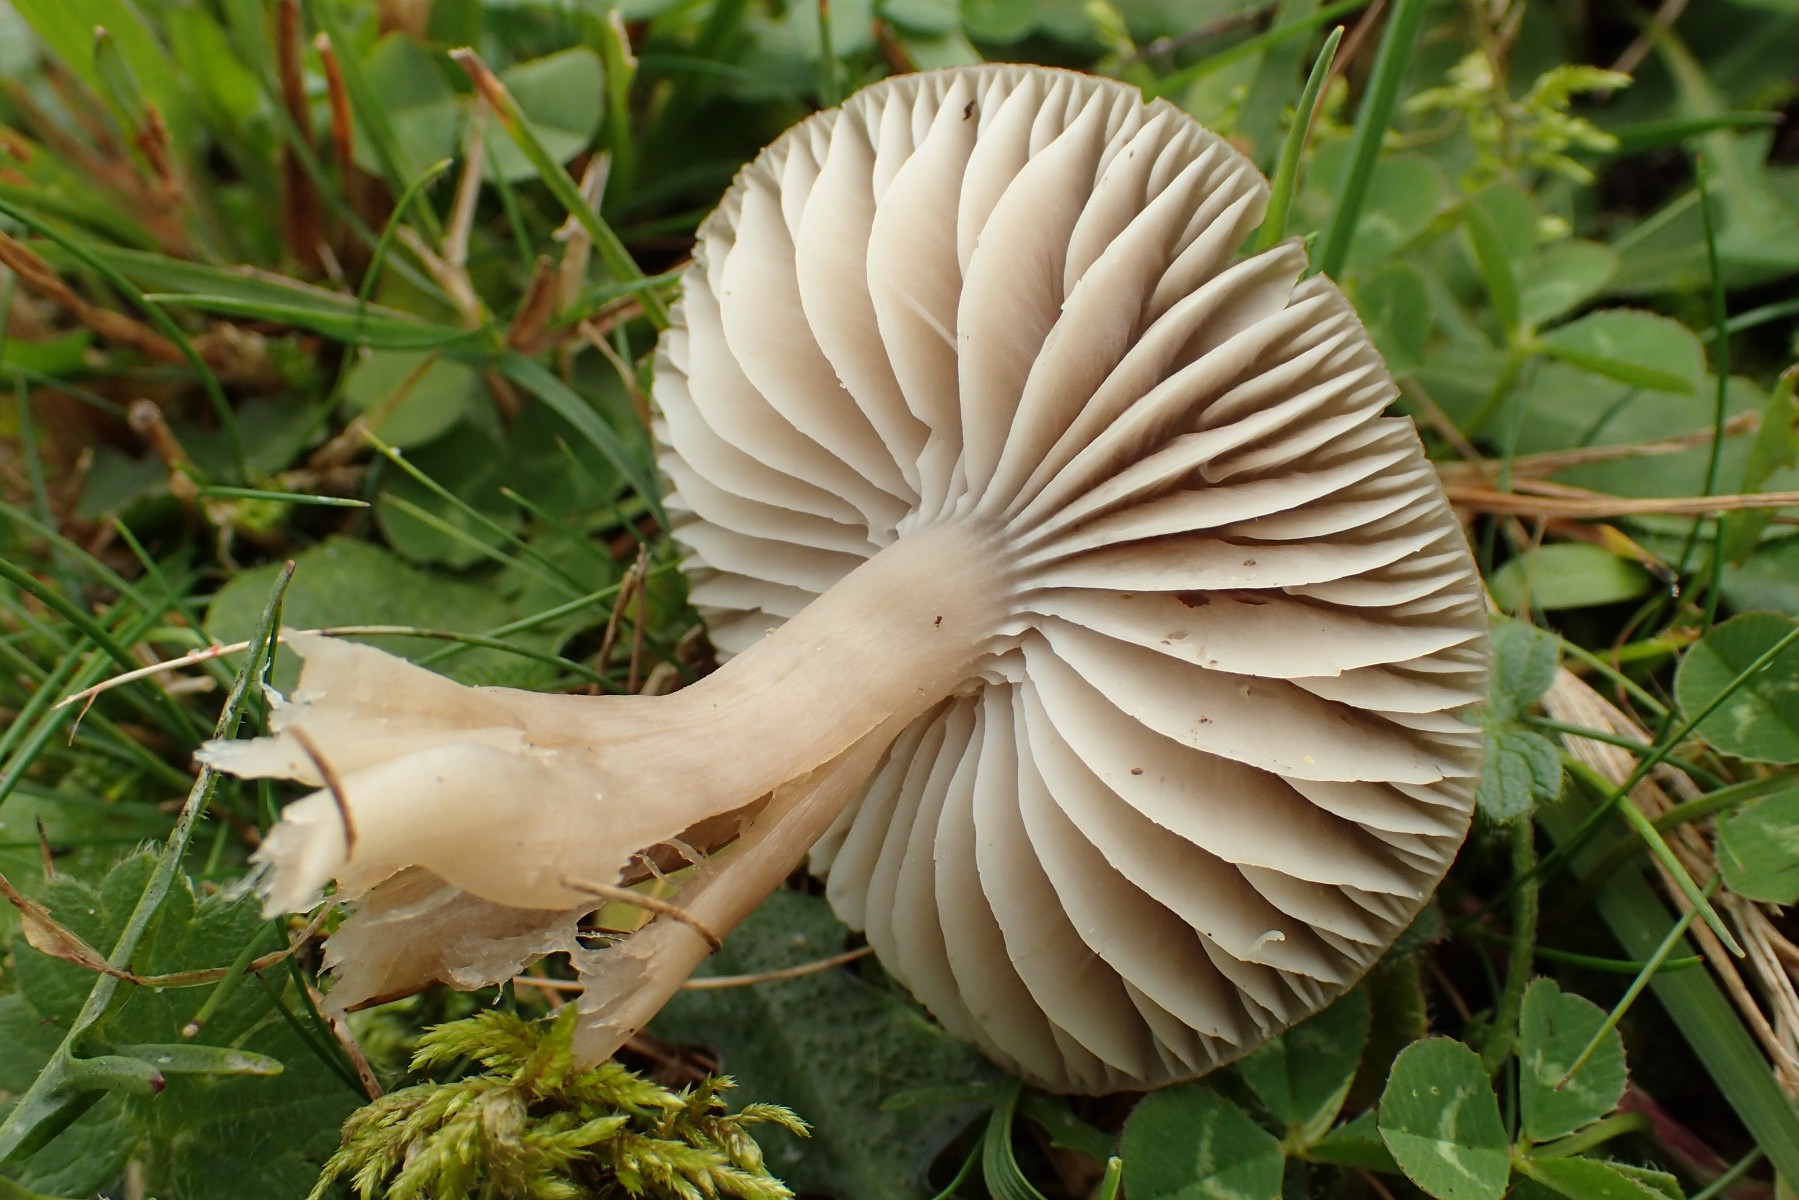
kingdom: Fungi
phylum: Basidiomycota
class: Agaricomycetes
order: Agaricales
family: Hygrophoraceae
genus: Neohygrocybe
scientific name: Neohygrocybe nitrata
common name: stinkende vokshat
